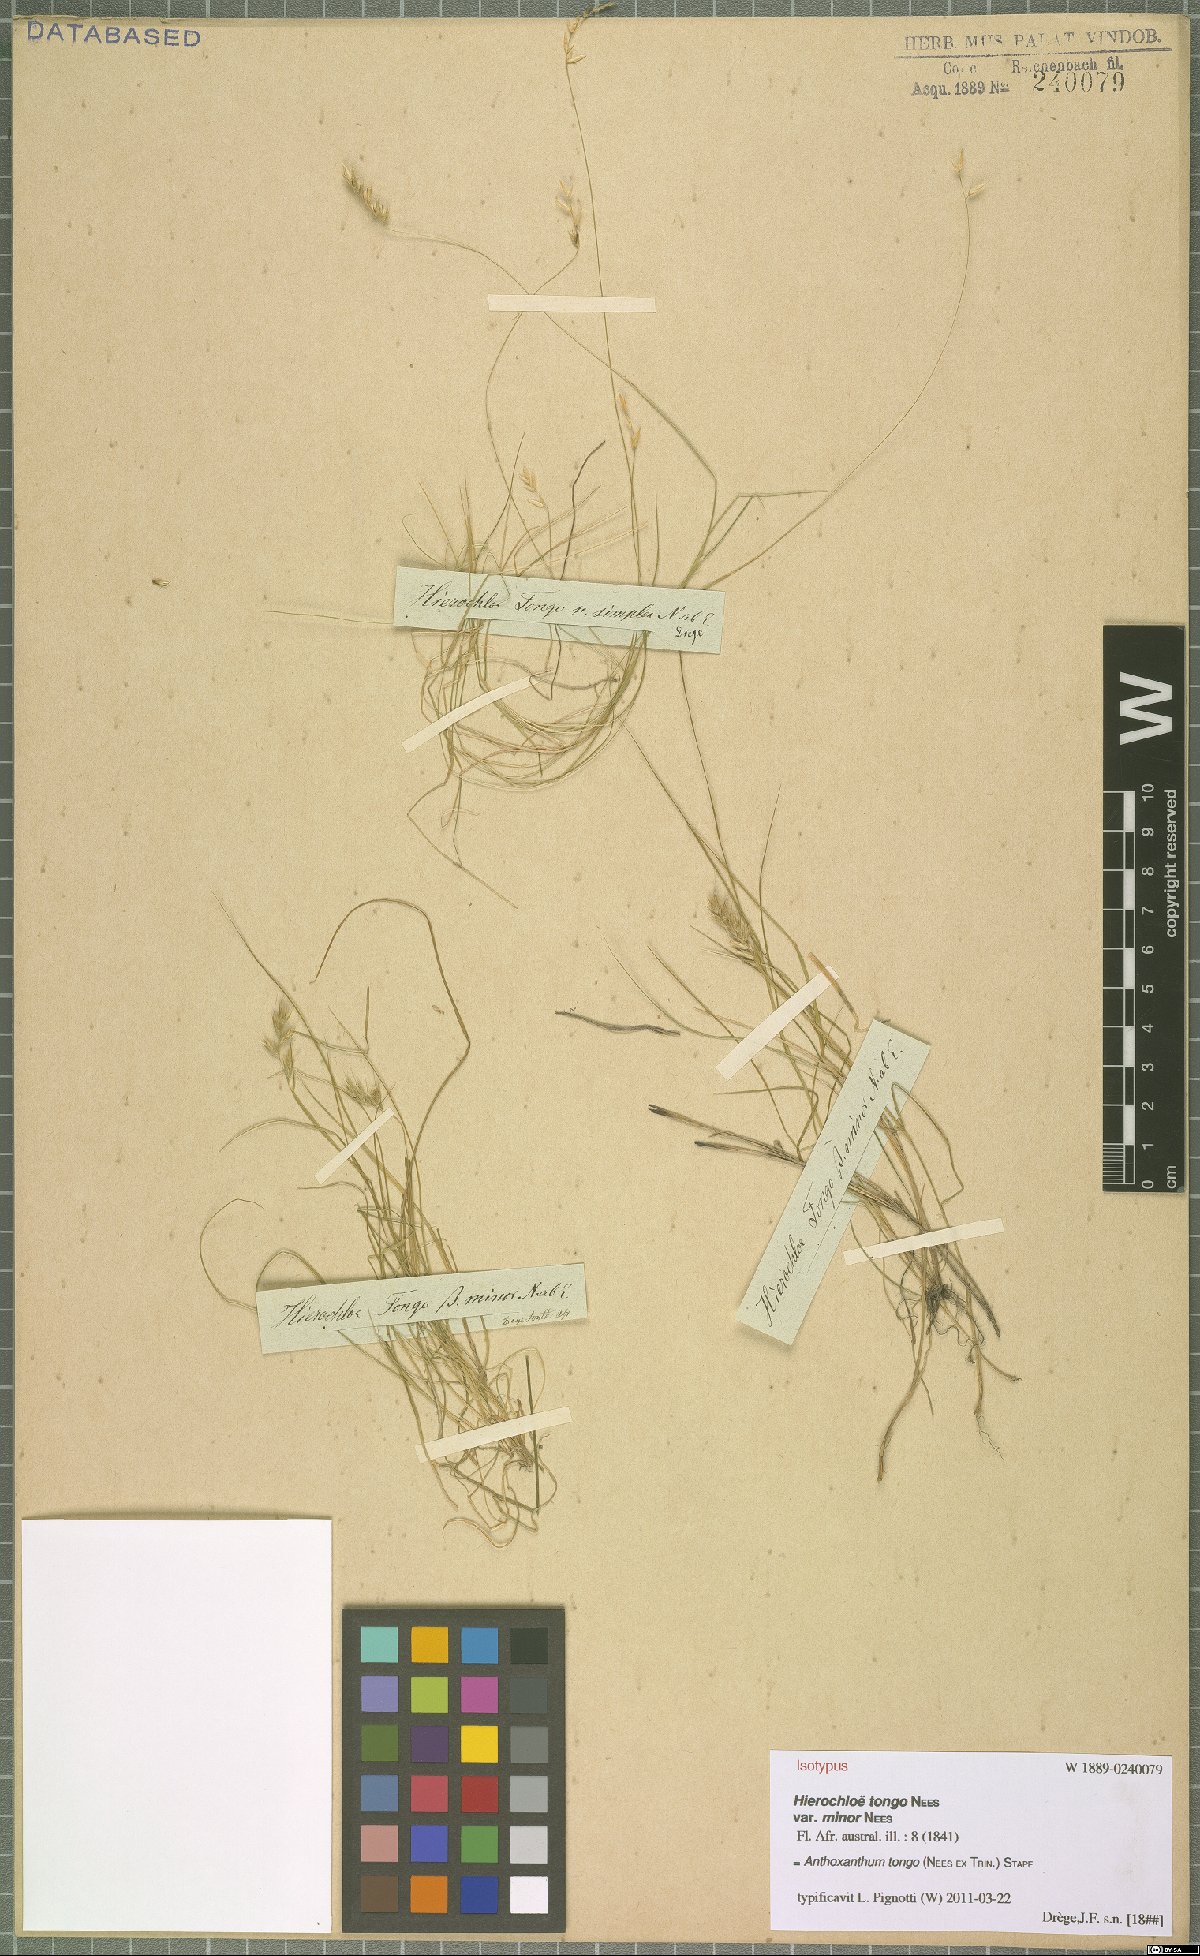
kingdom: Plantae
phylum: Tracheophyta
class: Liliopsida
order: Poales
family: Poaceae
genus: Anthoxanthum
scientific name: Anthoxanthum tongo
